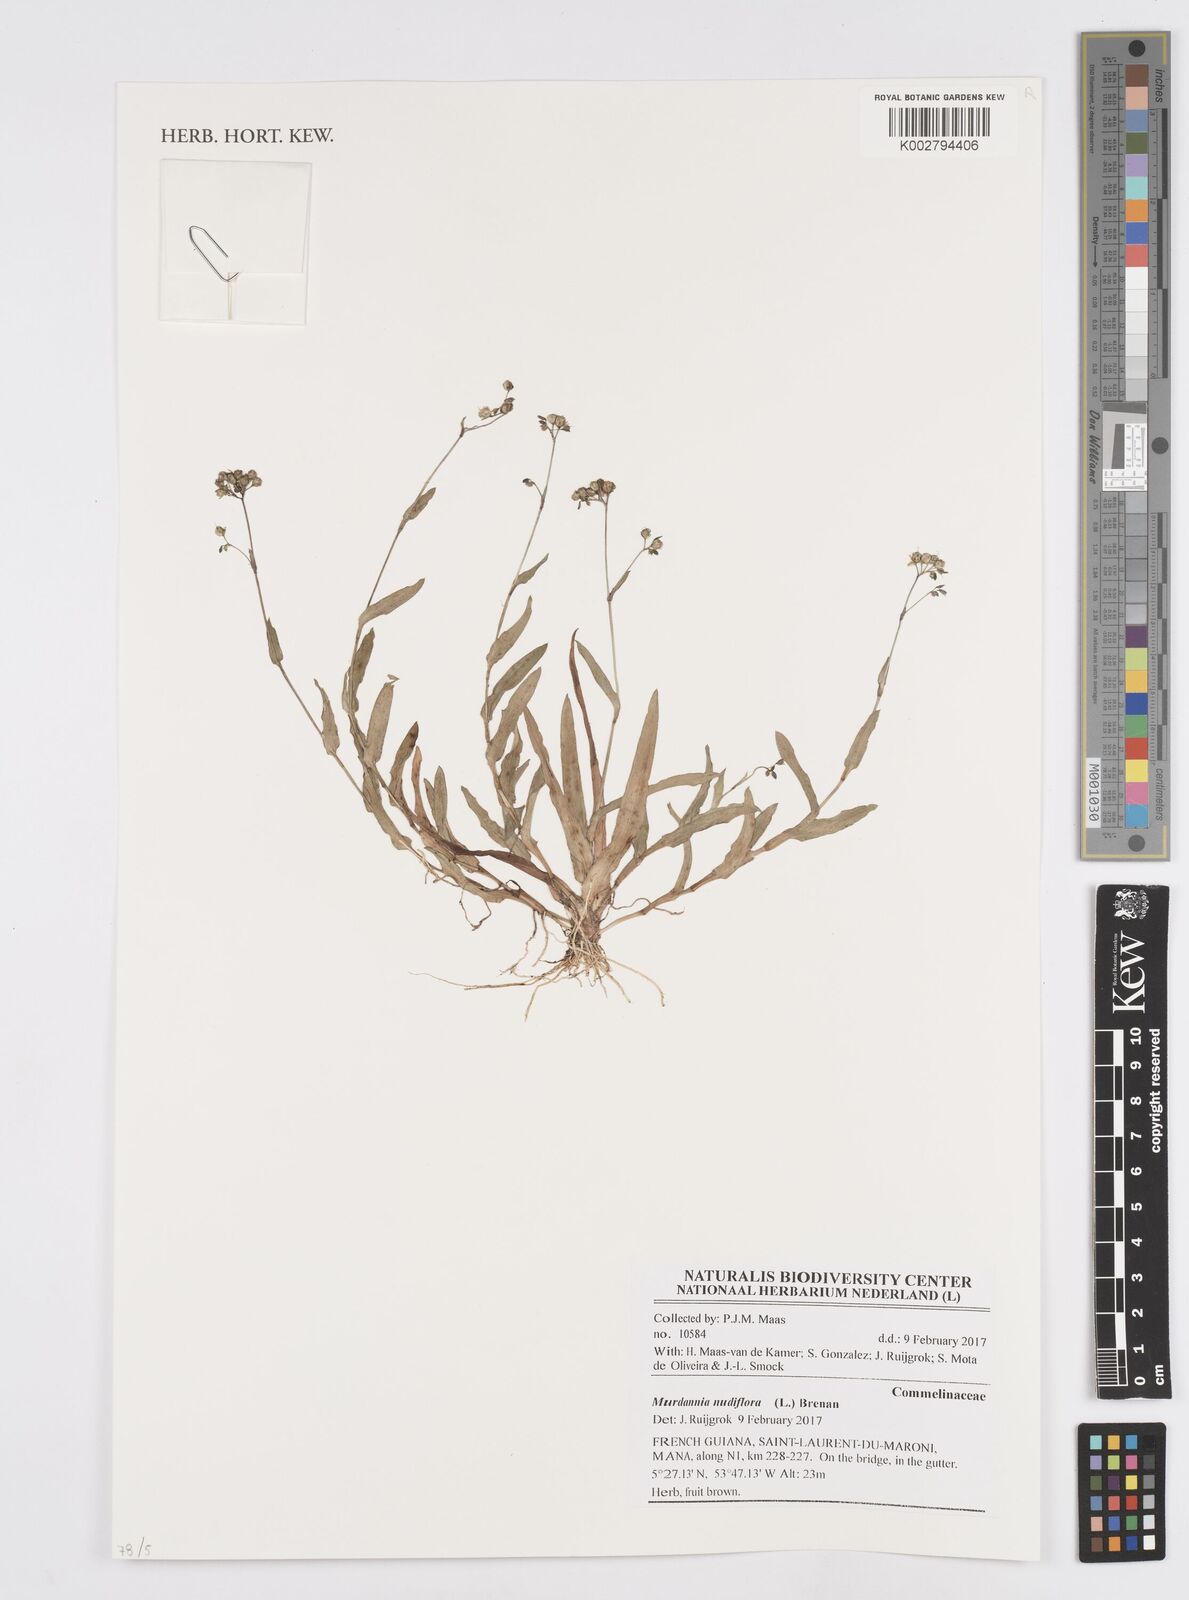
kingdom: Plantae
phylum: Tracheophyta
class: Liliopsida
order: Commelinales
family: Commelinaceae
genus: Murdannia
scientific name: Murdannia nudiflora
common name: Nakedstem dewflower
